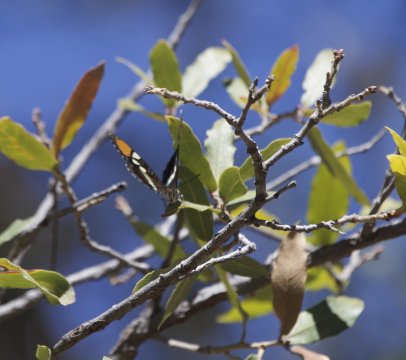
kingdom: Animalia
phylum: Arthropoda
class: Insecta
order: Lepidoptera
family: Nymphalidae
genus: Limenitis
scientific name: Limenitis bredowii
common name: Arizona Sister
